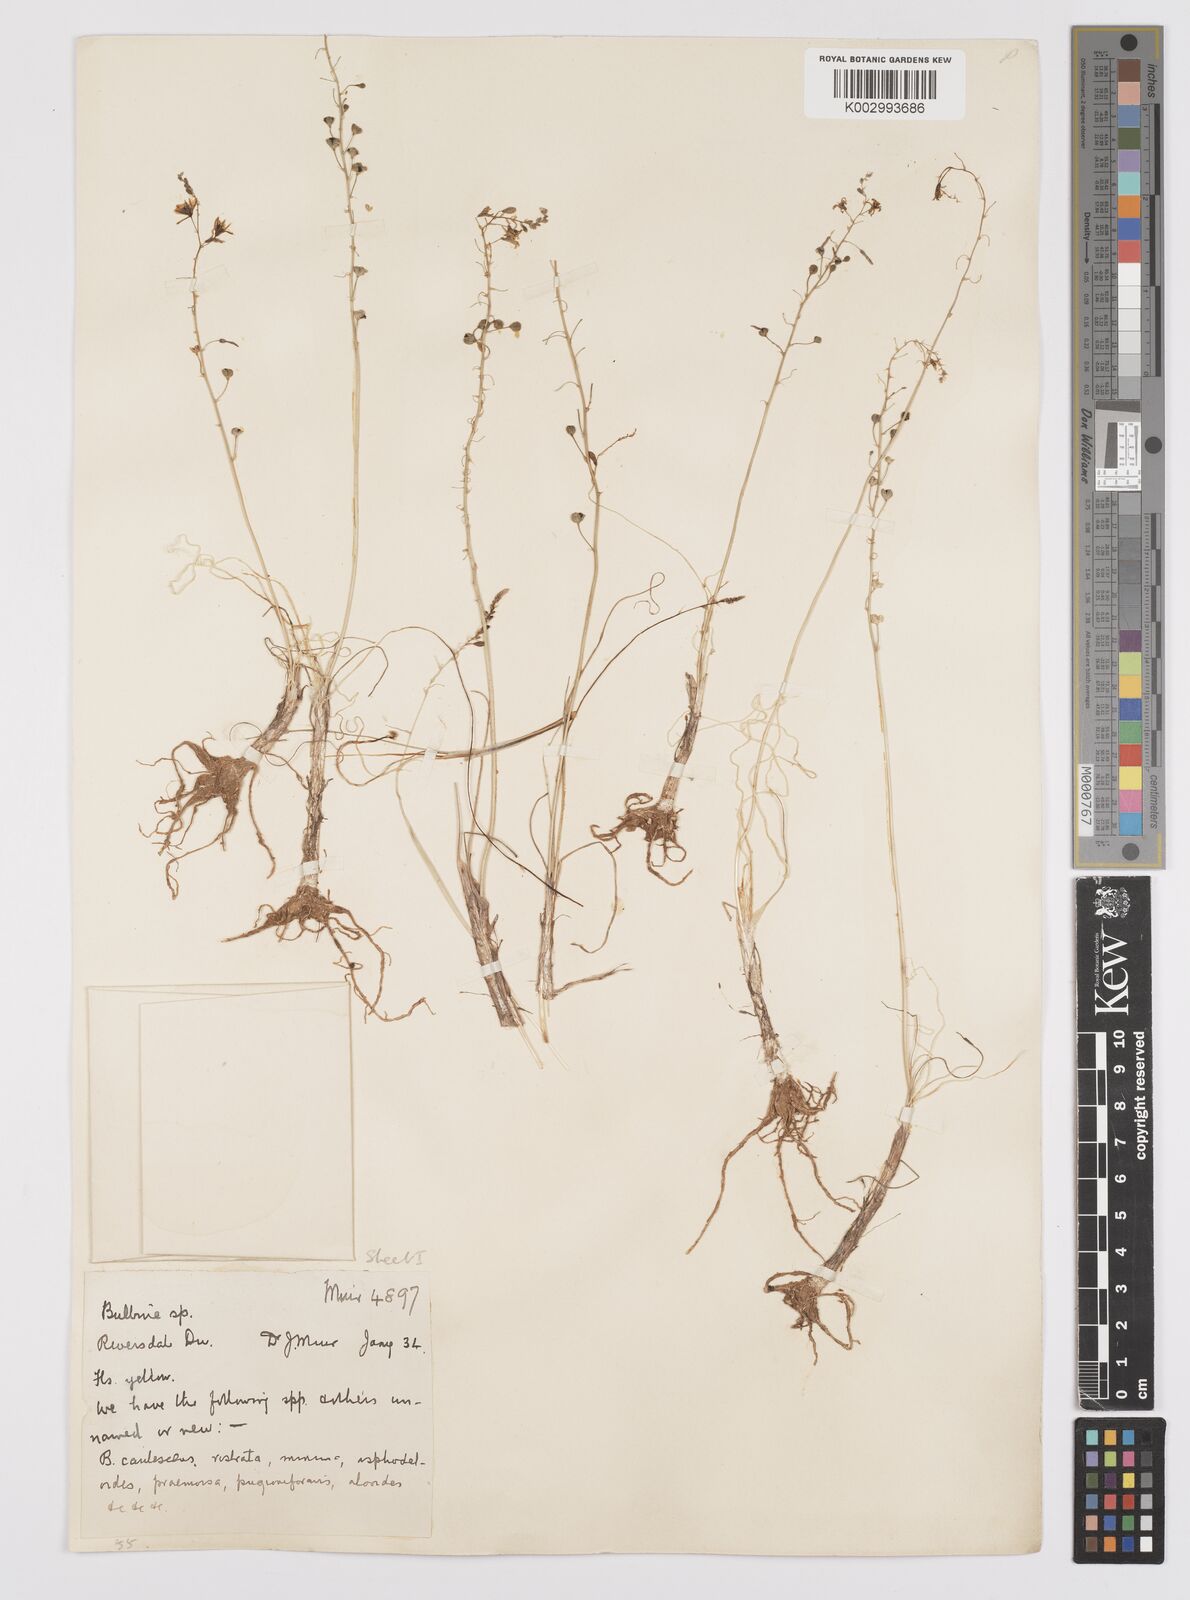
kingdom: Plantae
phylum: Tracheophyta
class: Liliopsida
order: Asparagales
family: Asphodelaceae
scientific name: Asphodelaceae
